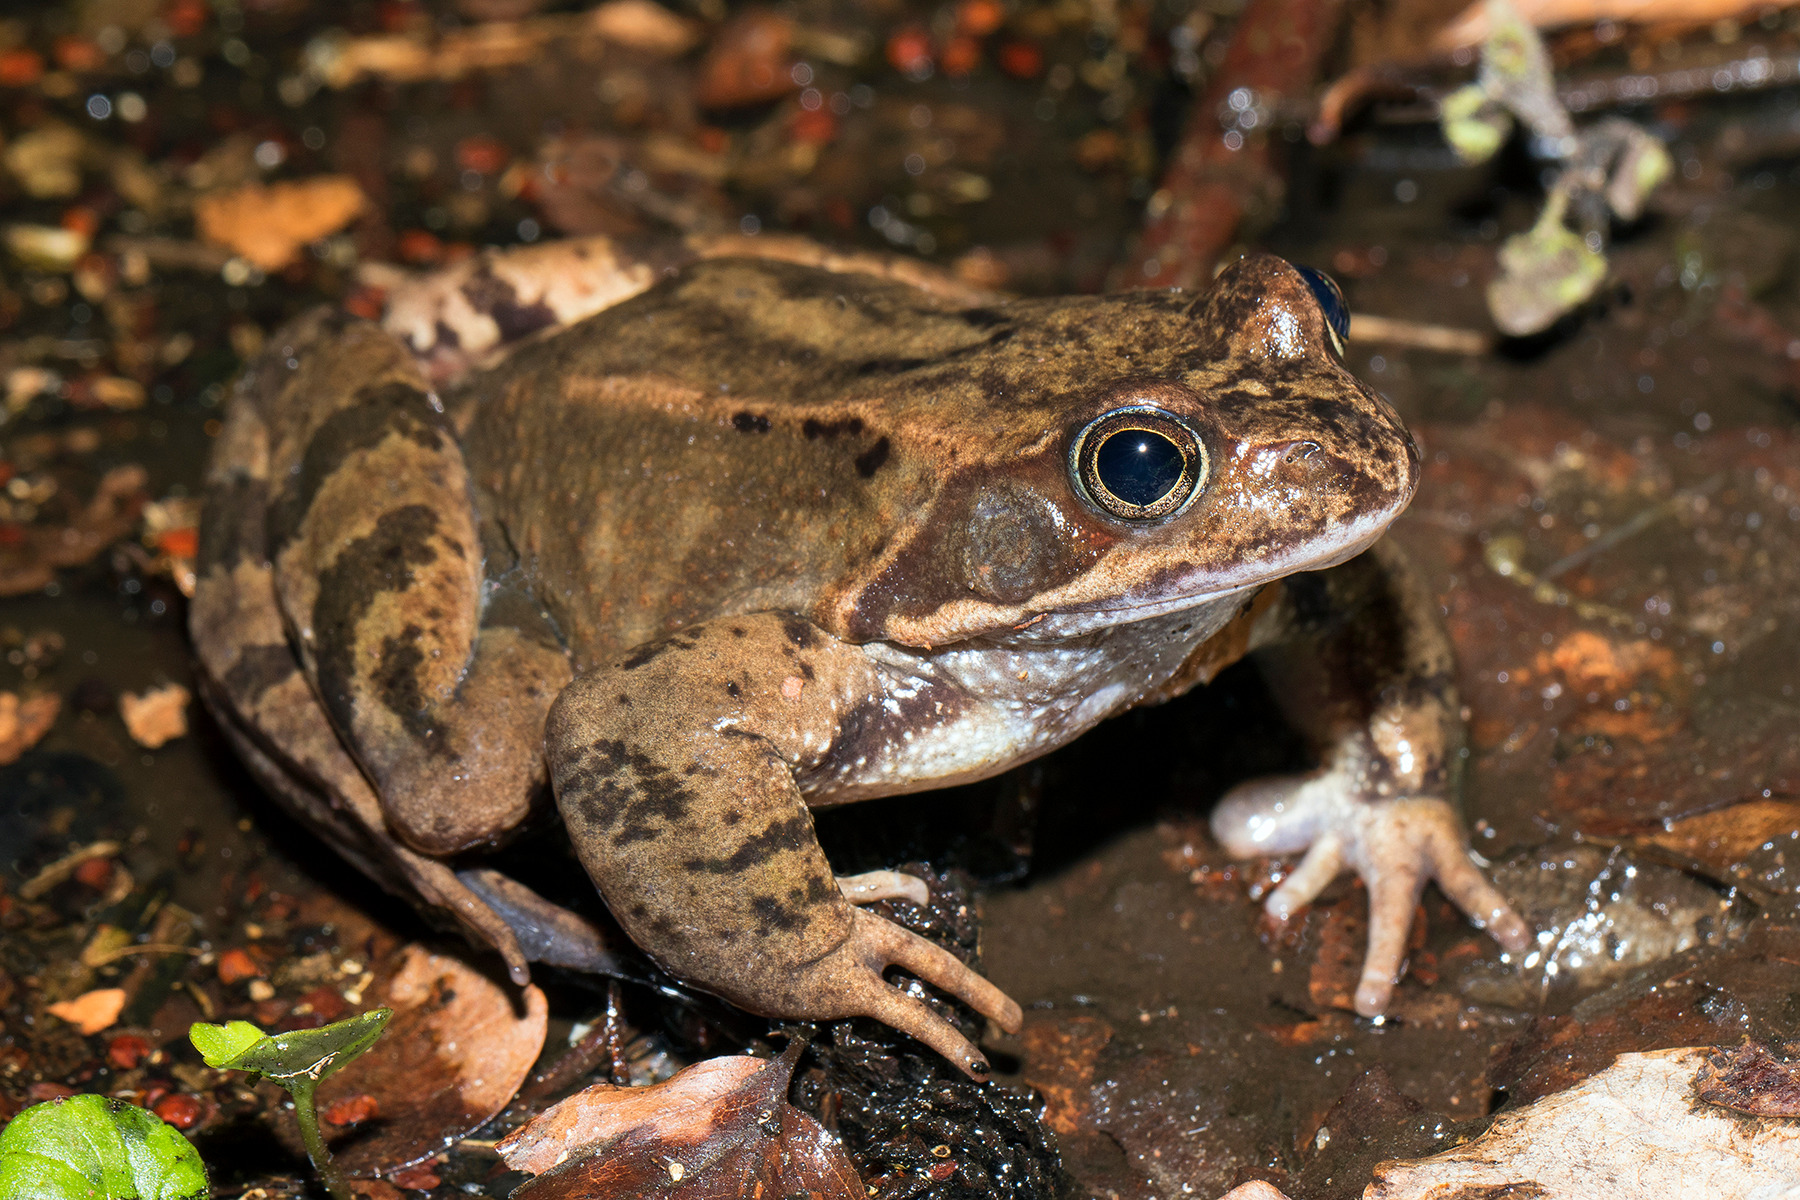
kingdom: Animalia
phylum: Chordata
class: Amphibia
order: Anura
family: Ranidae
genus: Rana
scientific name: Rana temporaria
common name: Butsnudet frø
